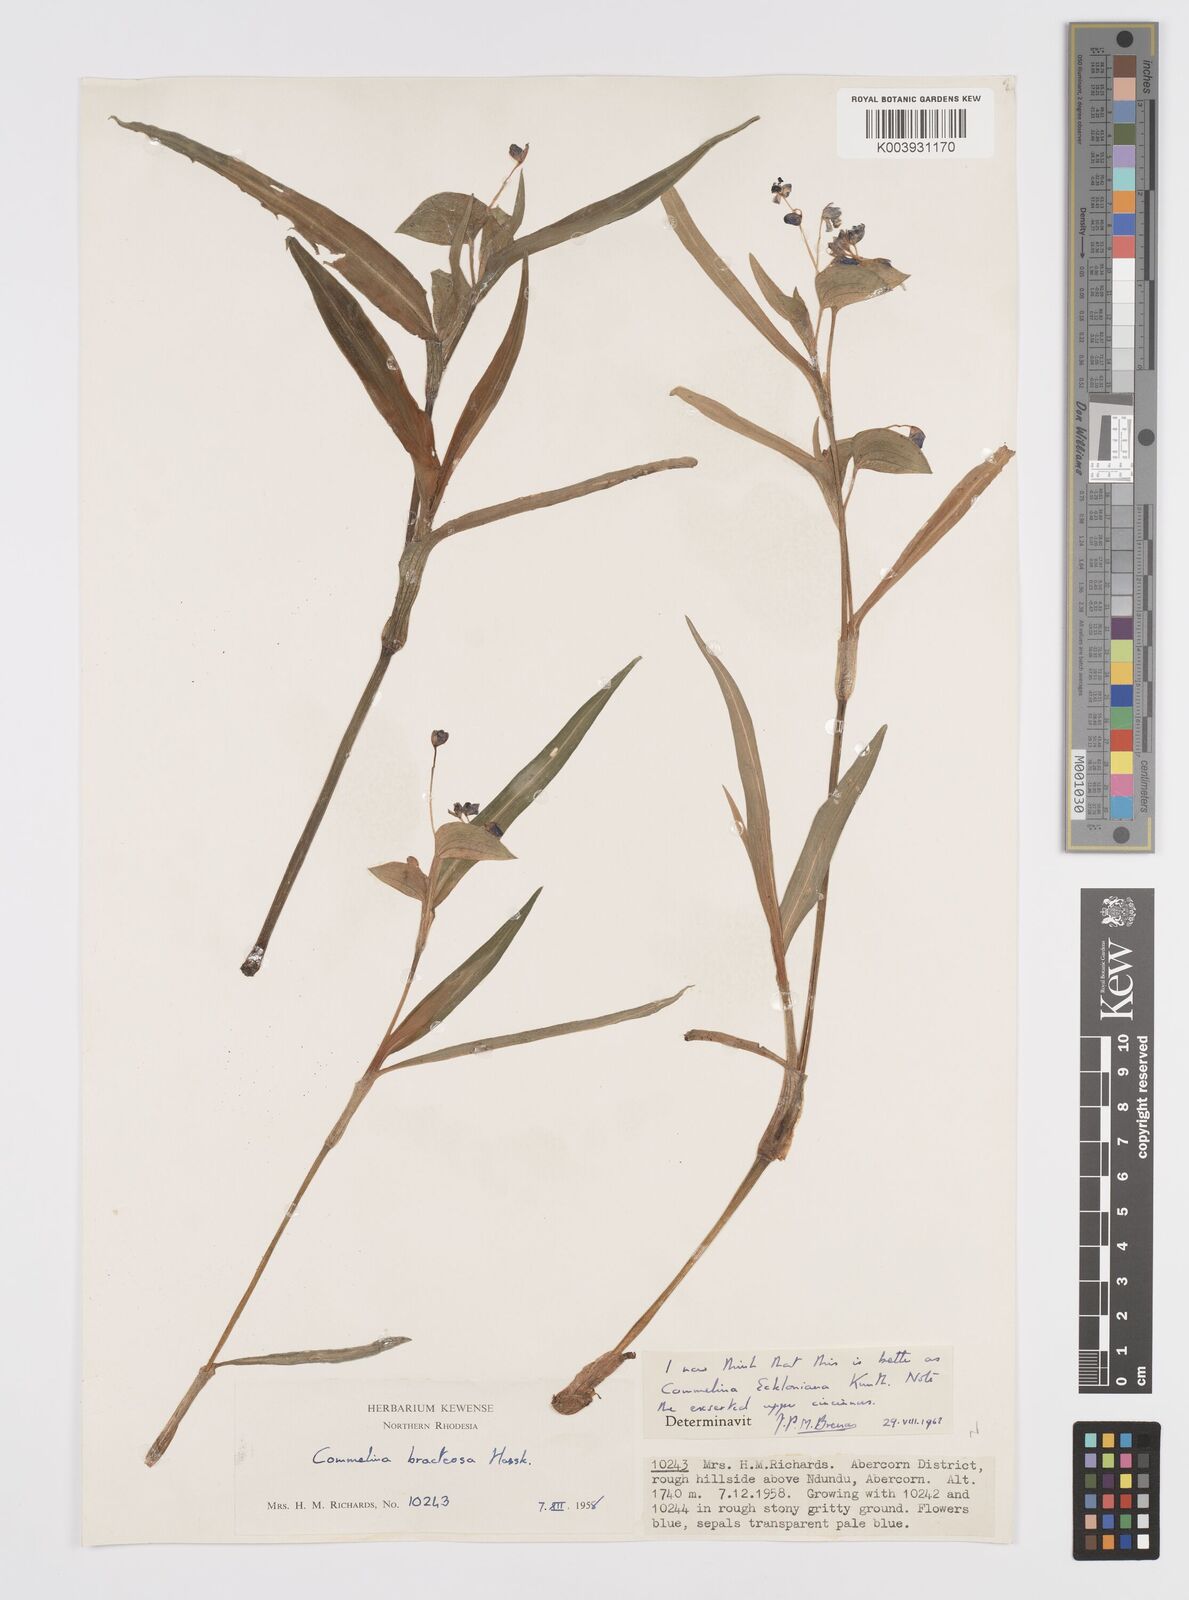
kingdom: Plantae
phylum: Tracheophyta
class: Liliopsida
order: Commelinales
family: Commelinaceae
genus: Commelina
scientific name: Commelina eckloniana
